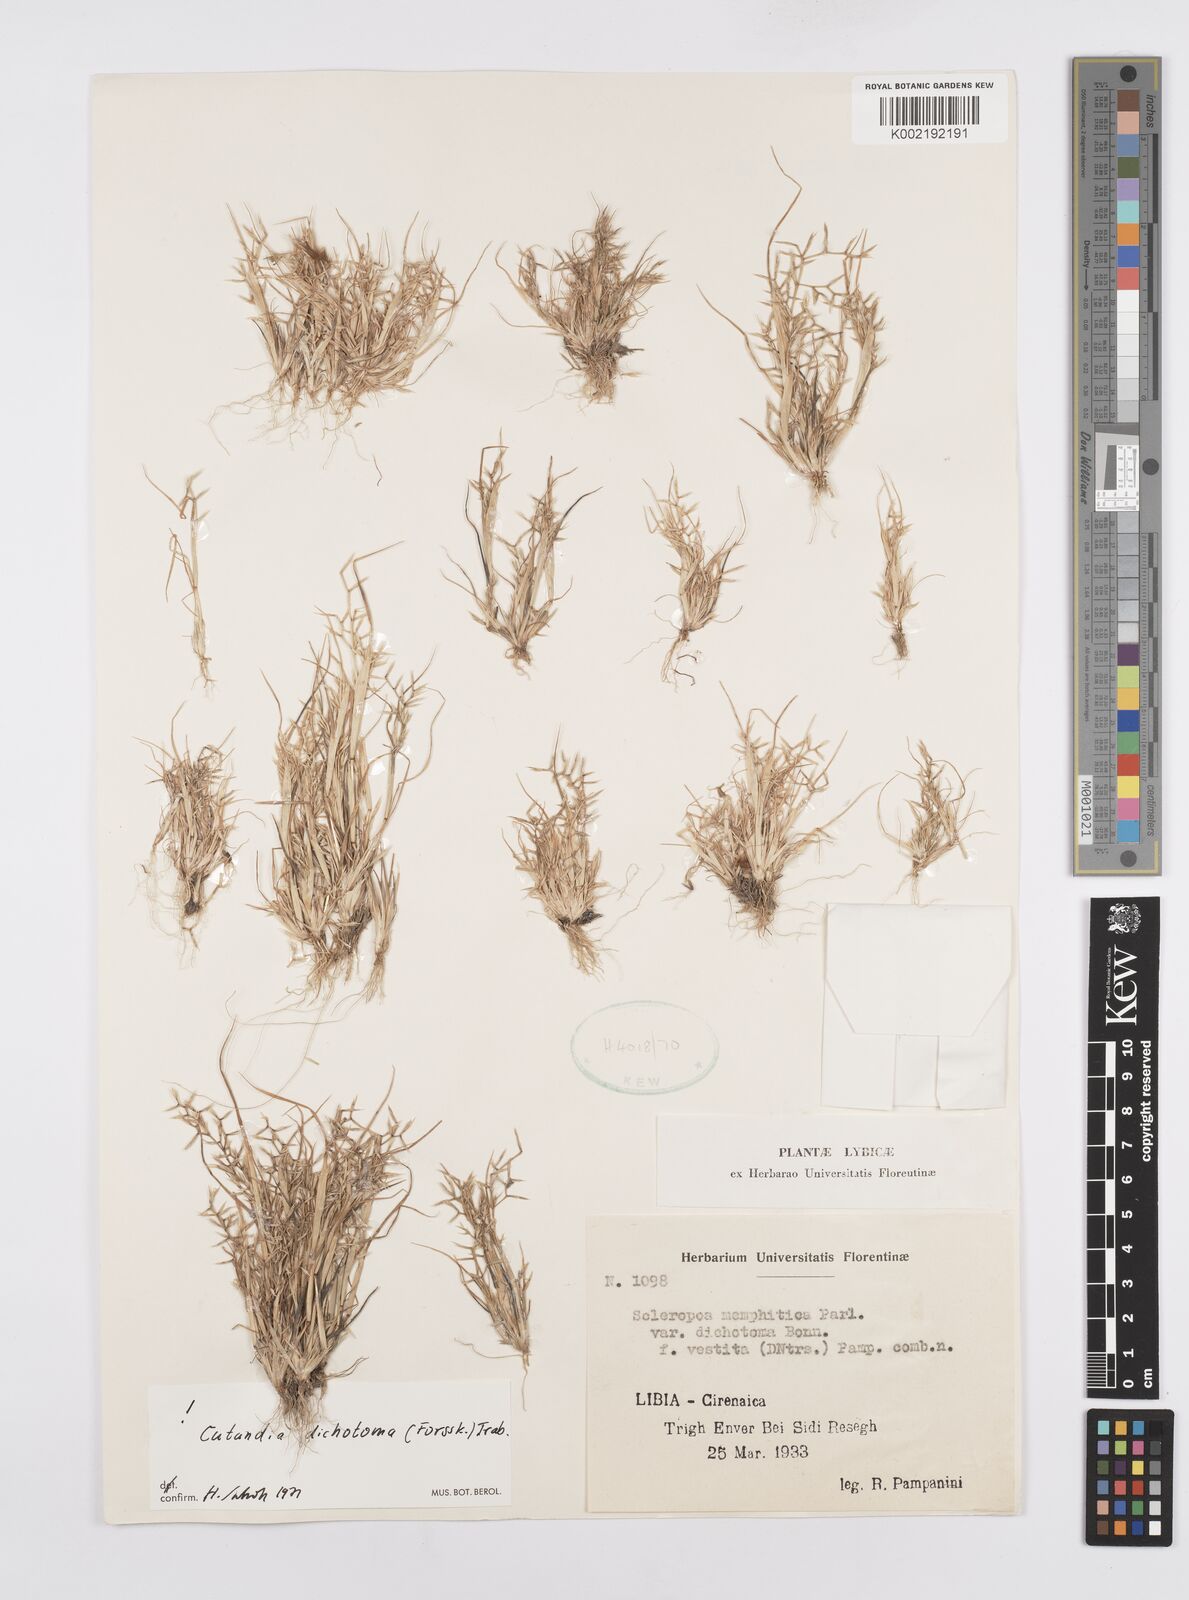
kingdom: Plantae
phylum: Tracheophyta
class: Liliopsida
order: Poales
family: Poaceae
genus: Cutandia
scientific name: Cutandia dichotoma
